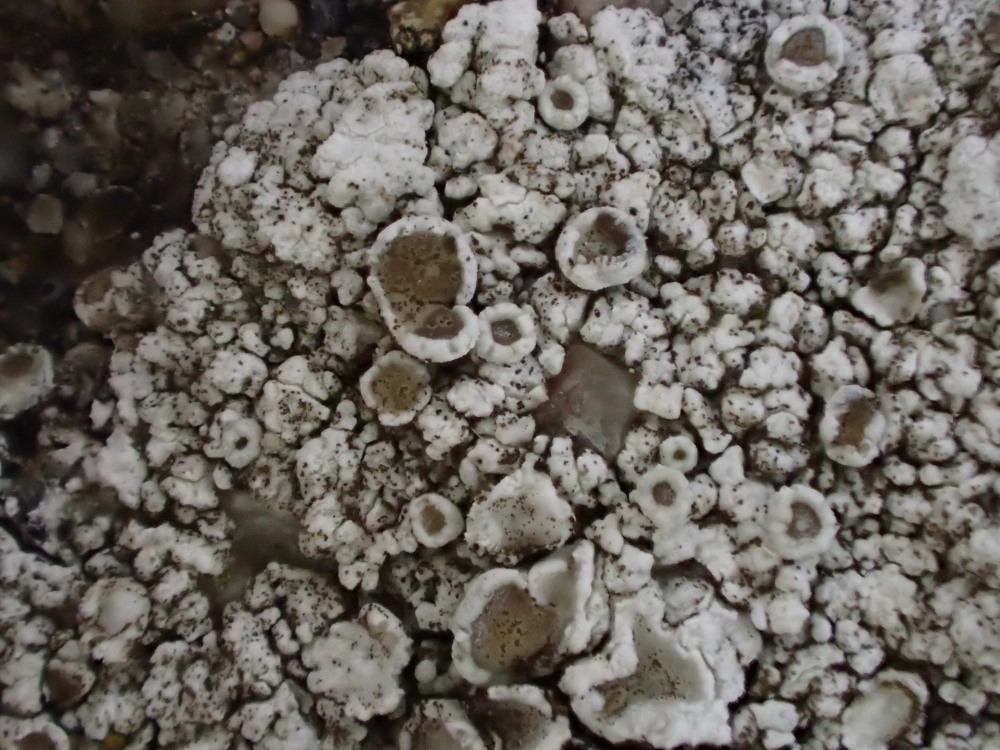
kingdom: Fungi
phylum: Ascomycota
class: Lecanoromycetes
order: Lecanorales
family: Lecanoraceae
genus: Polyozosia
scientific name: Polyozosia albescens
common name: cement-kantskivelav
